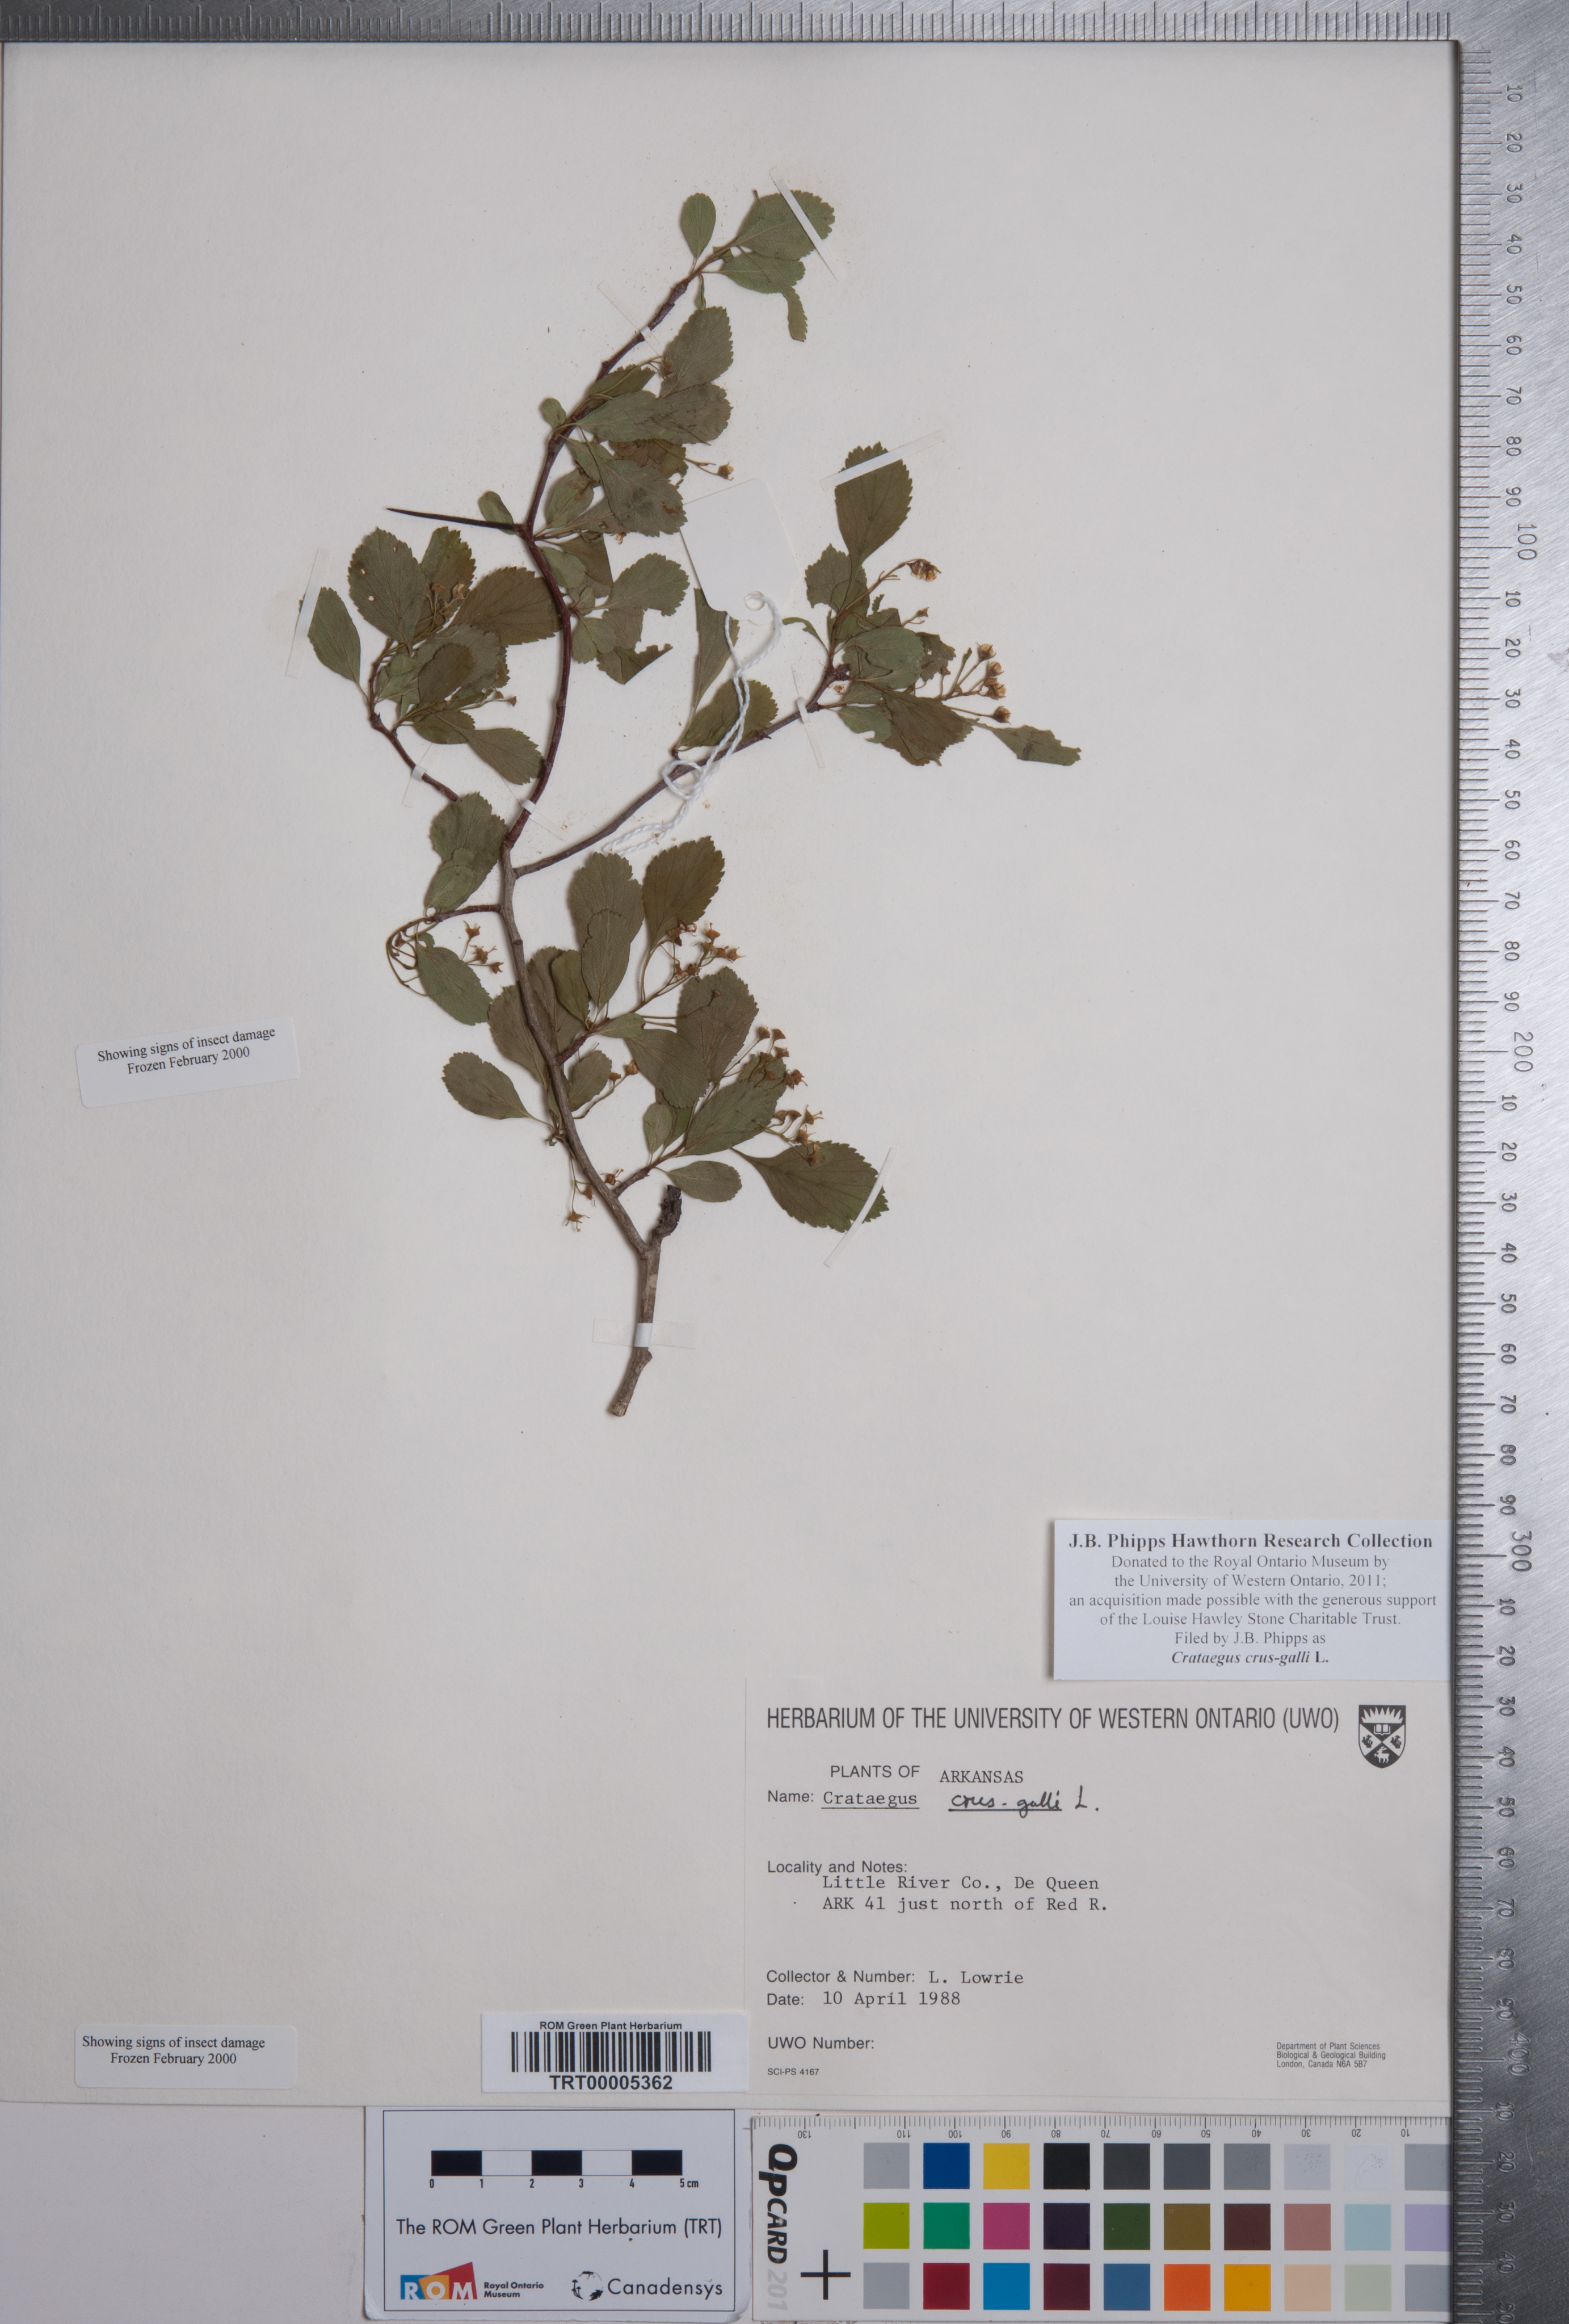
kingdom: Plantae
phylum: Tracheophyta
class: Magnoliopsida
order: Rosales
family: Rosaceae
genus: Crataegus
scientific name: Crataegus crus-galli
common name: Cockspurthorn
